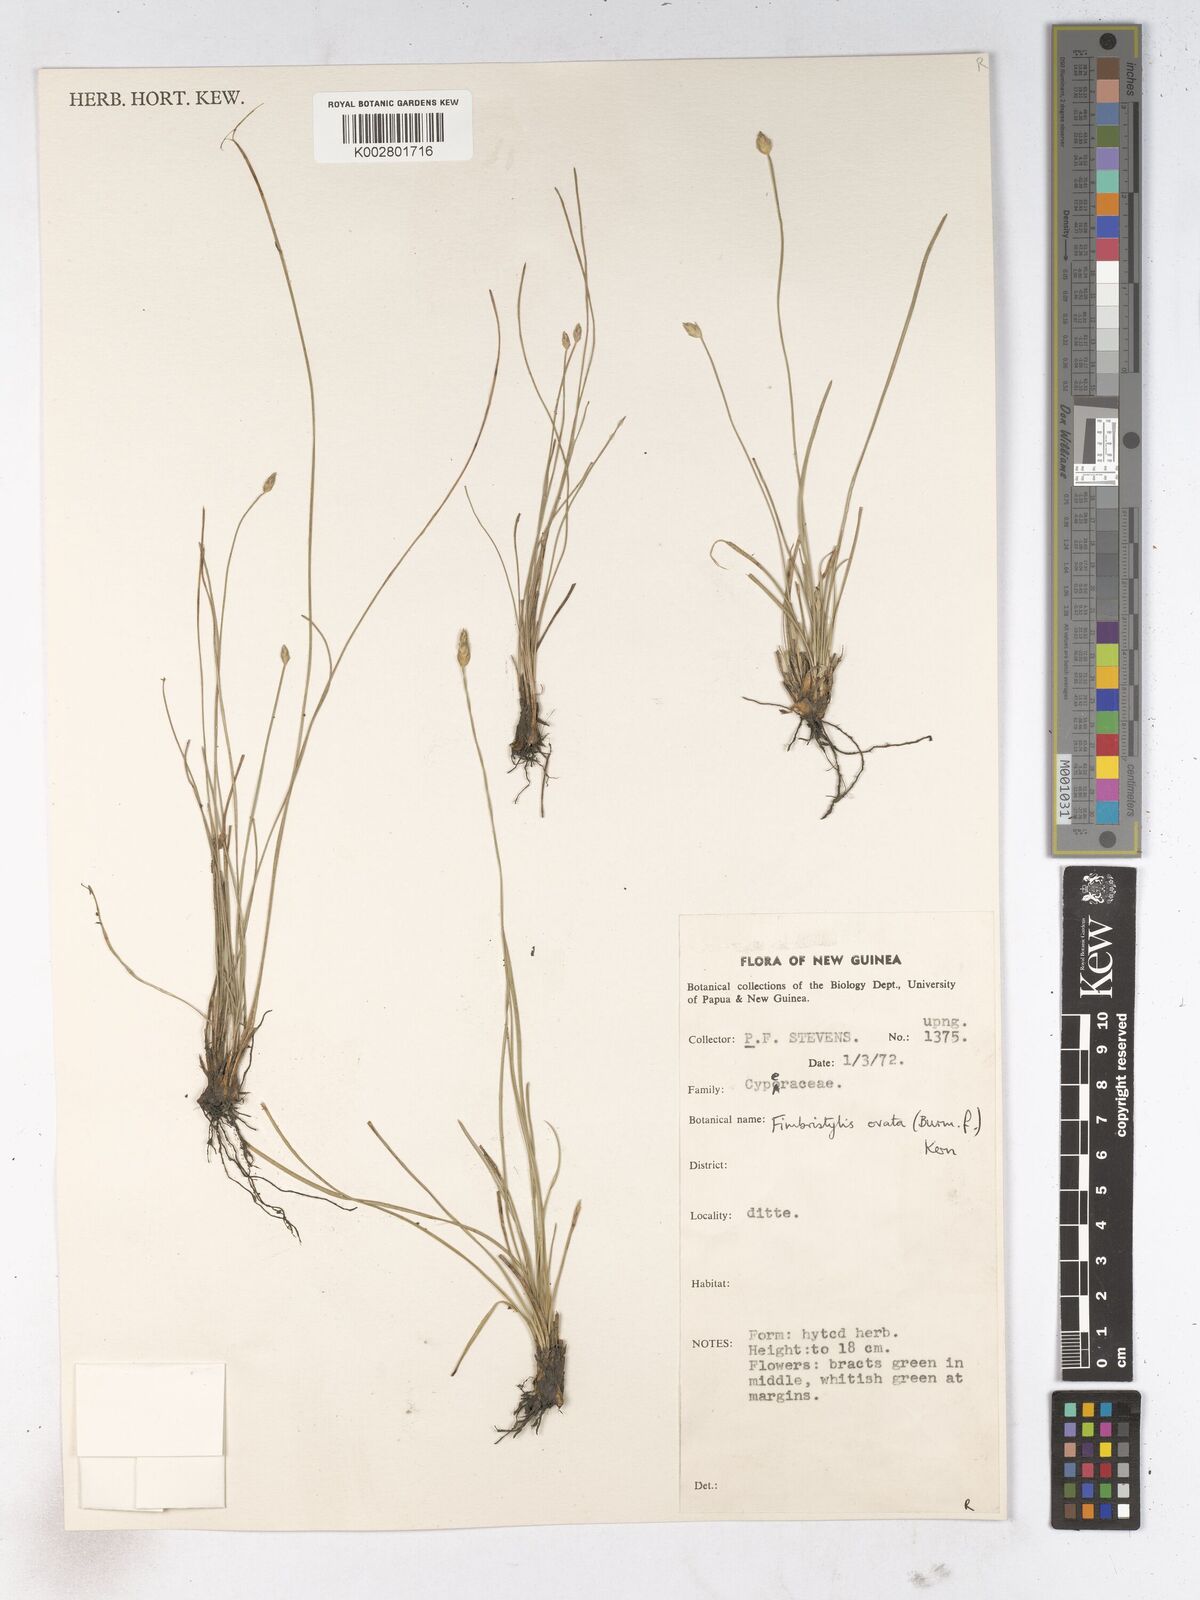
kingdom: Plantae
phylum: Tracheophyta
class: Liliopsida
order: Poales
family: Cyperaceae
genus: Abildgaardia
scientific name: Abildgaardia ovata
